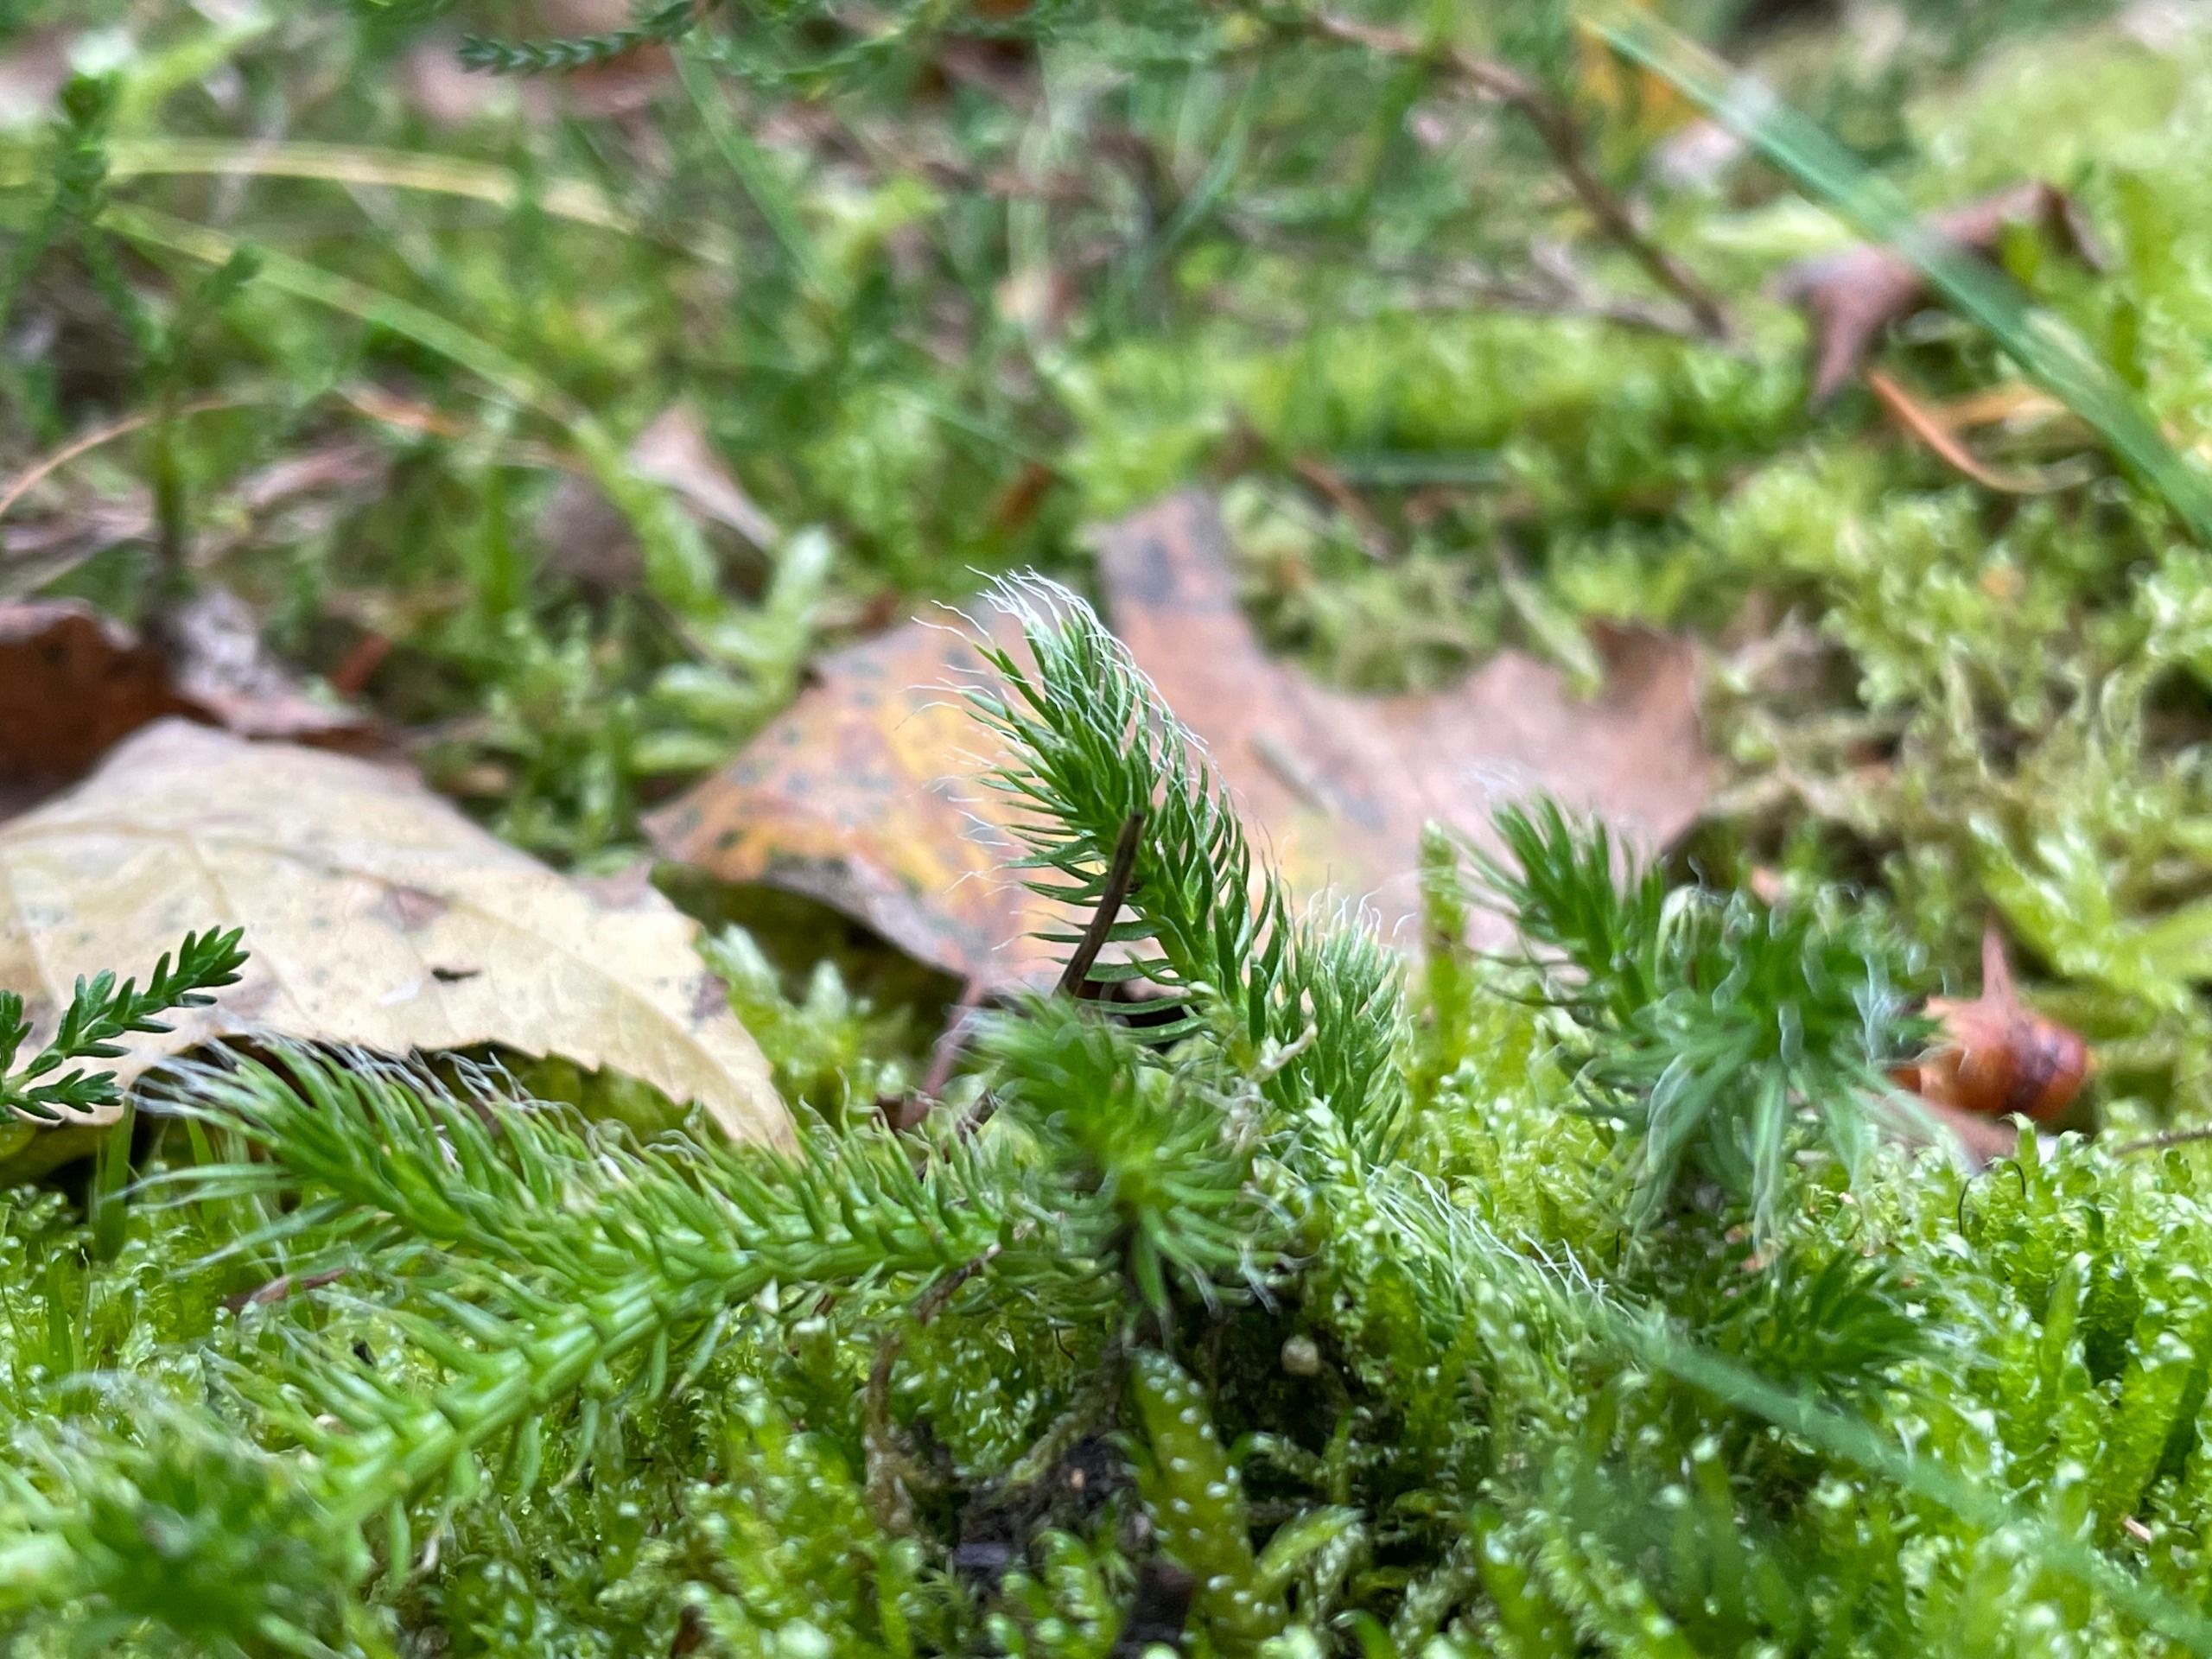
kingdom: Plantae
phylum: Tracheophyta
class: Lycopodiopsida
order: Lycopodiales
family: Lycopodiaceae
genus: Lycopodium
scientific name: Lycopodium clavatum
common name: Almindelig ulvefod
